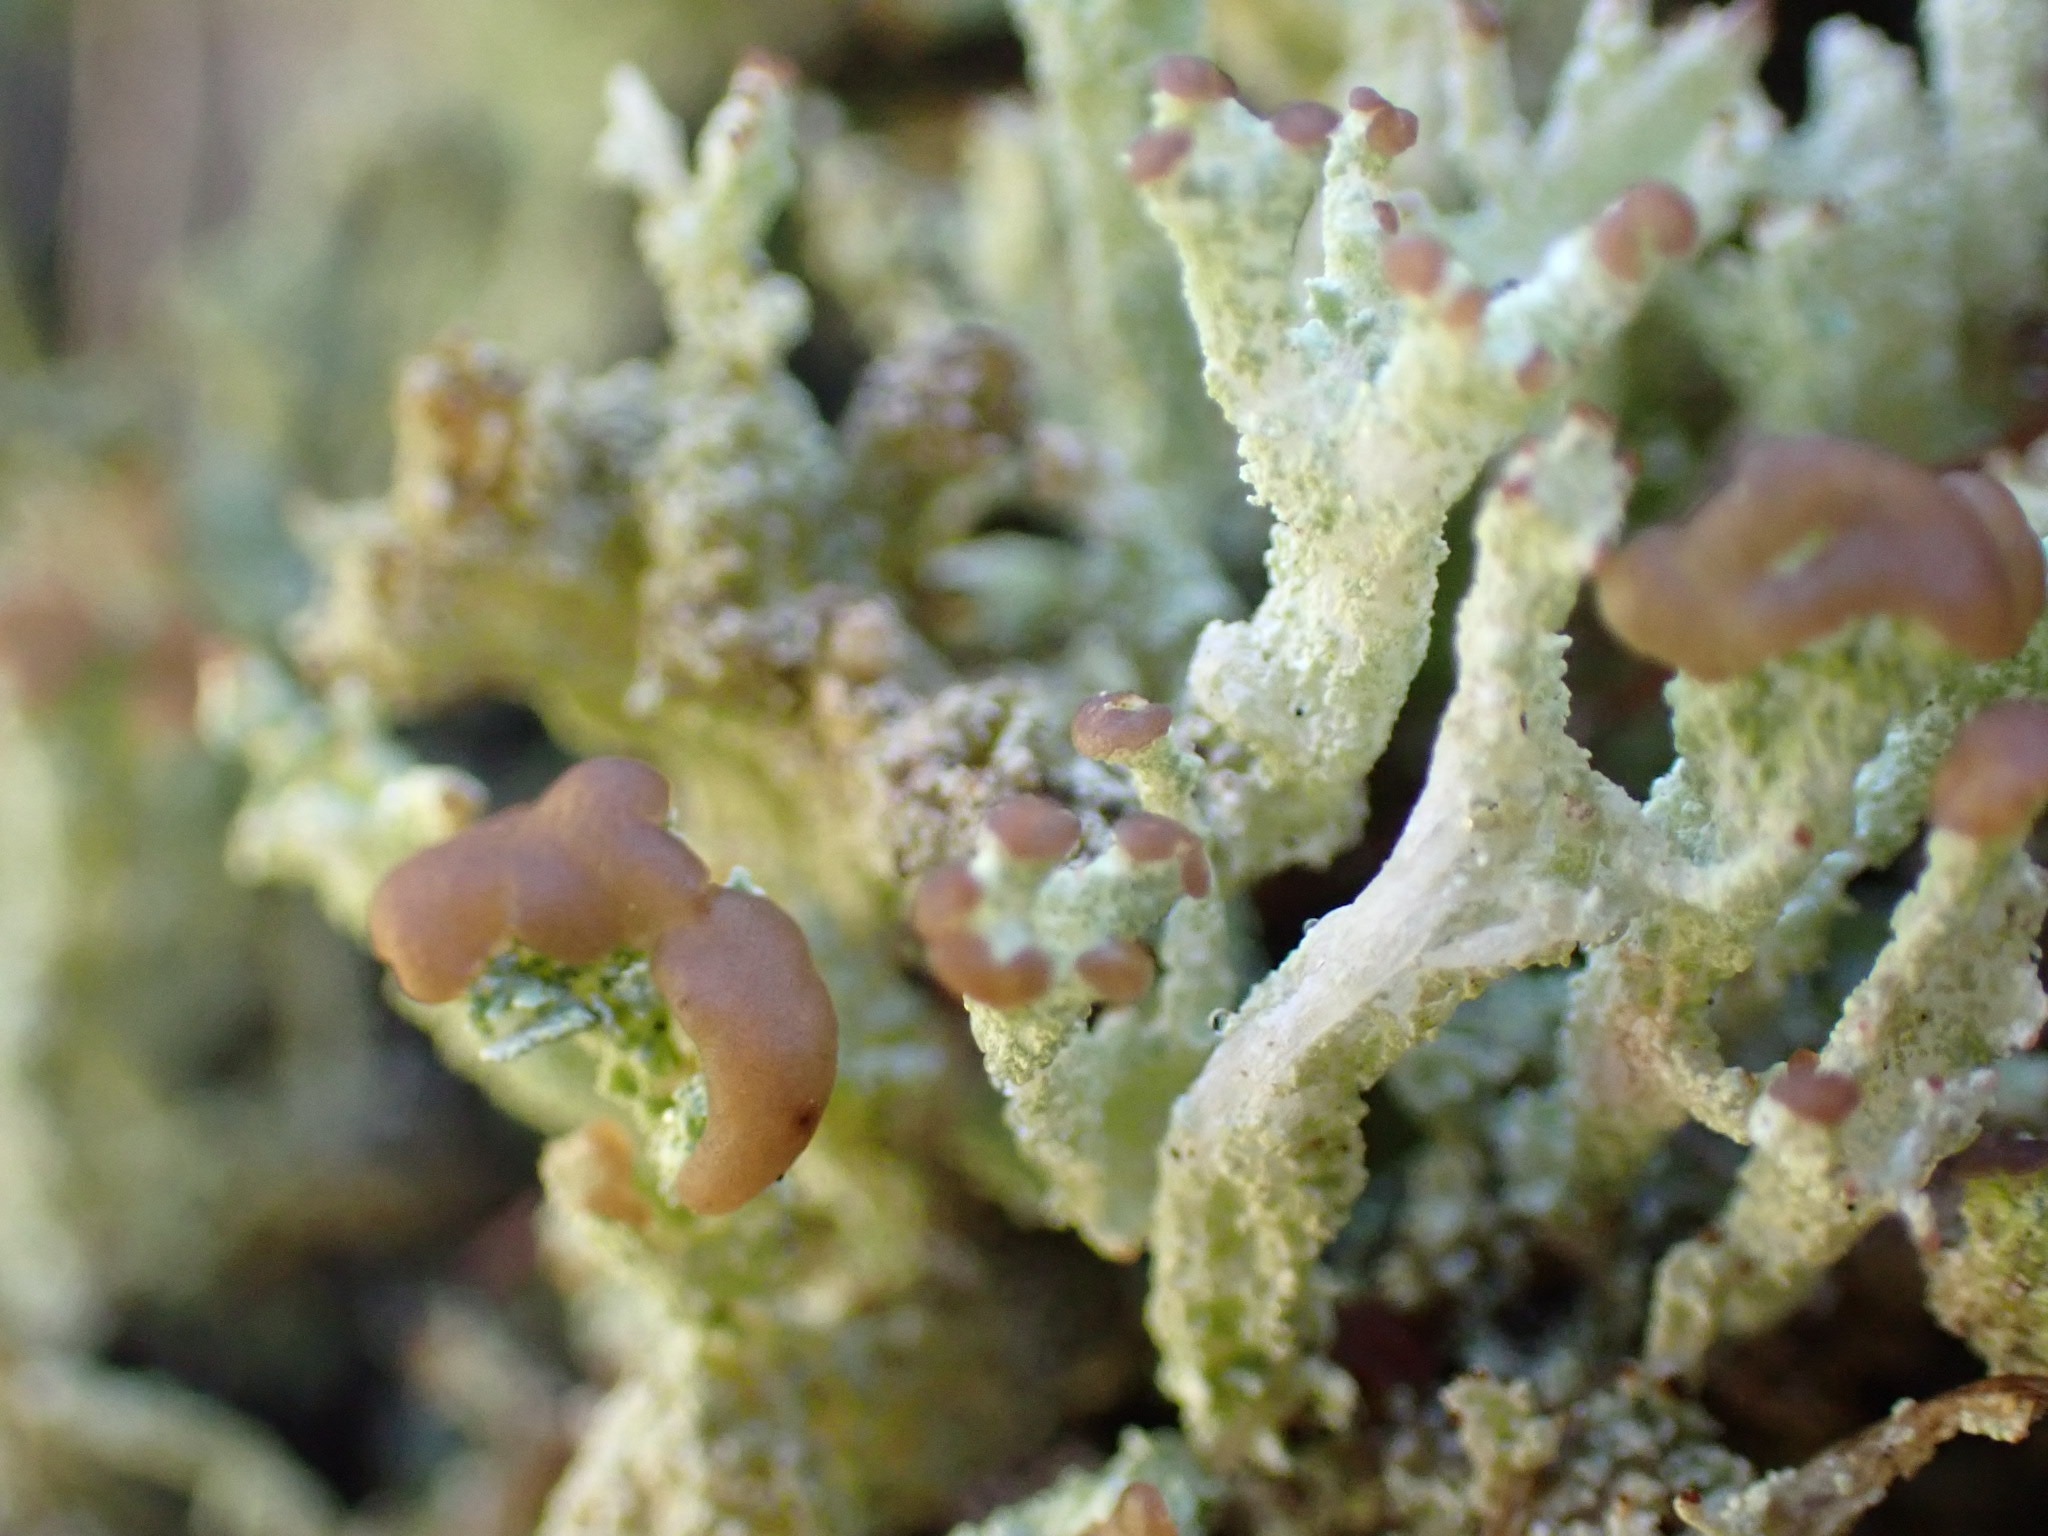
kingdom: Fungi
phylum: Ascomycota
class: Lecanoromycetes
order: Lecanorales
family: Cladoniaceae
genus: Cladonia
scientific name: Cladonia ramulosa
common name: kliddet bægerlav
